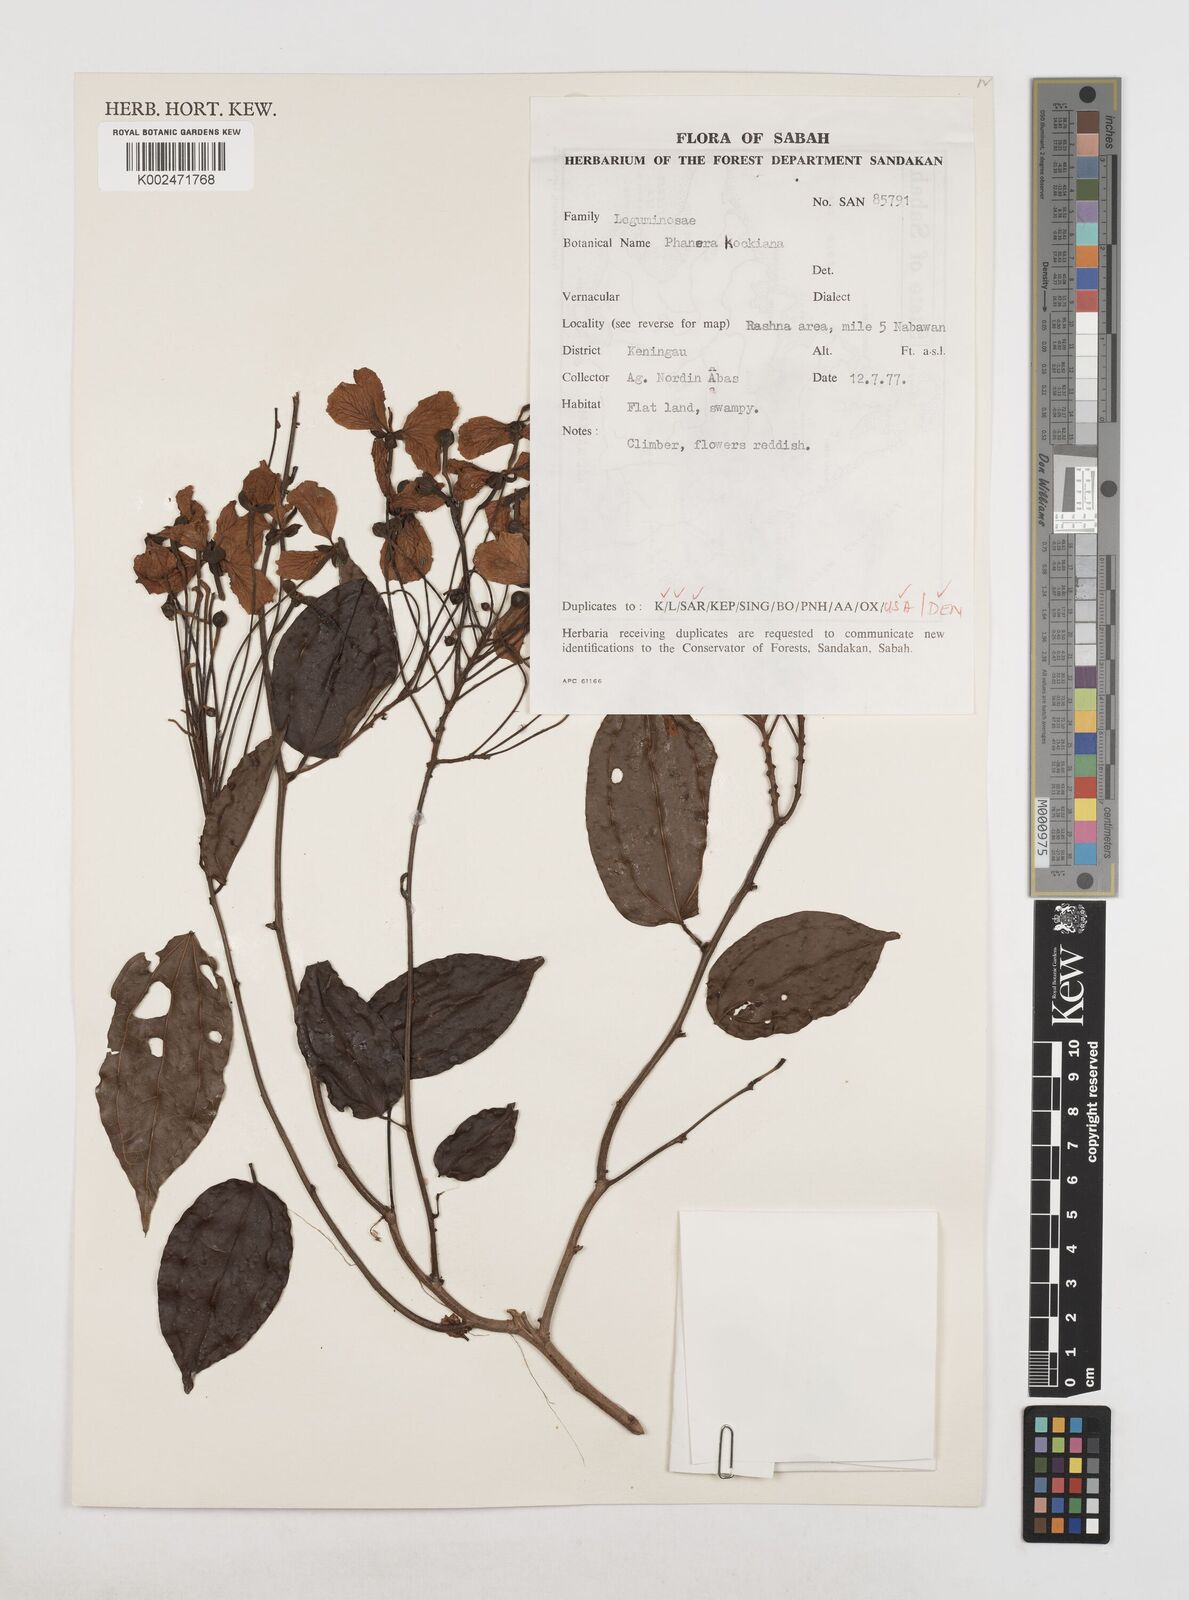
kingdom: Plantae
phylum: Tracheophyta
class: Magnoliopsida
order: Fabales
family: Fabaceae
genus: Phanera
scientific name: Phanera kockiana
